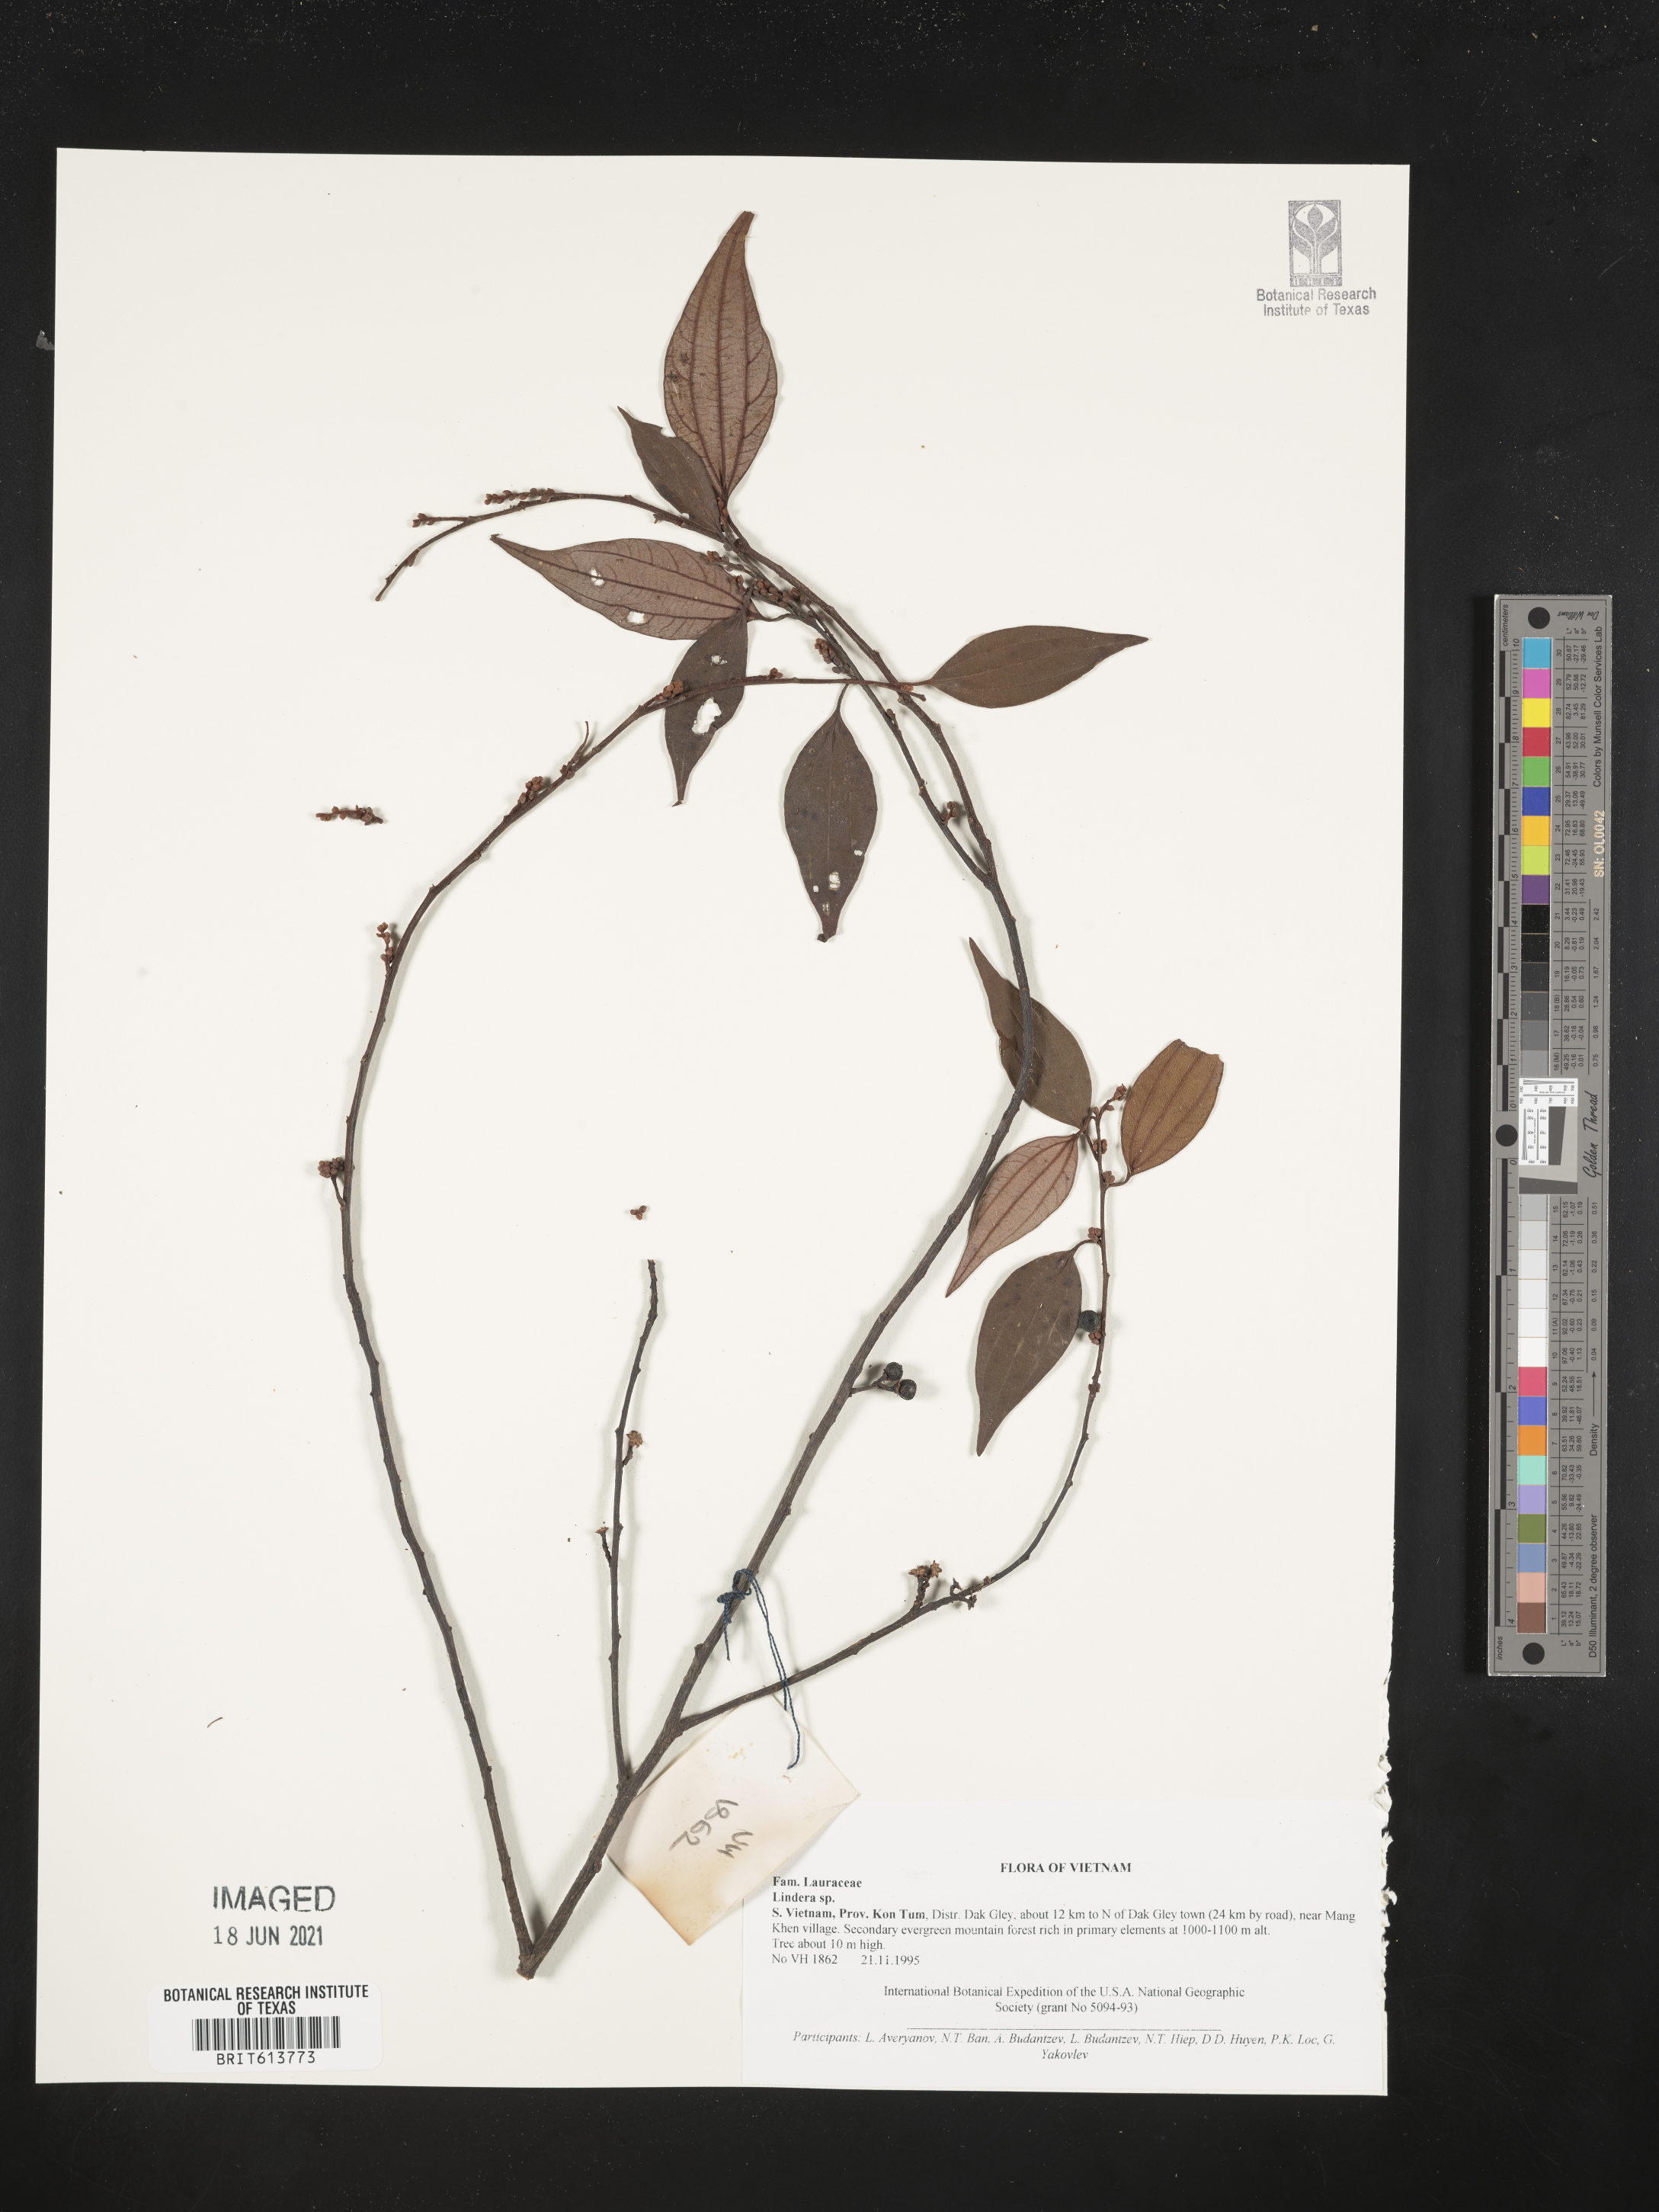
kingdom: Plantae
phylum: Tracheophyta
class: Magnoliopsida
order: Laurales
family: Lauraceae
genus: Lindera
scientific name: Lindera
